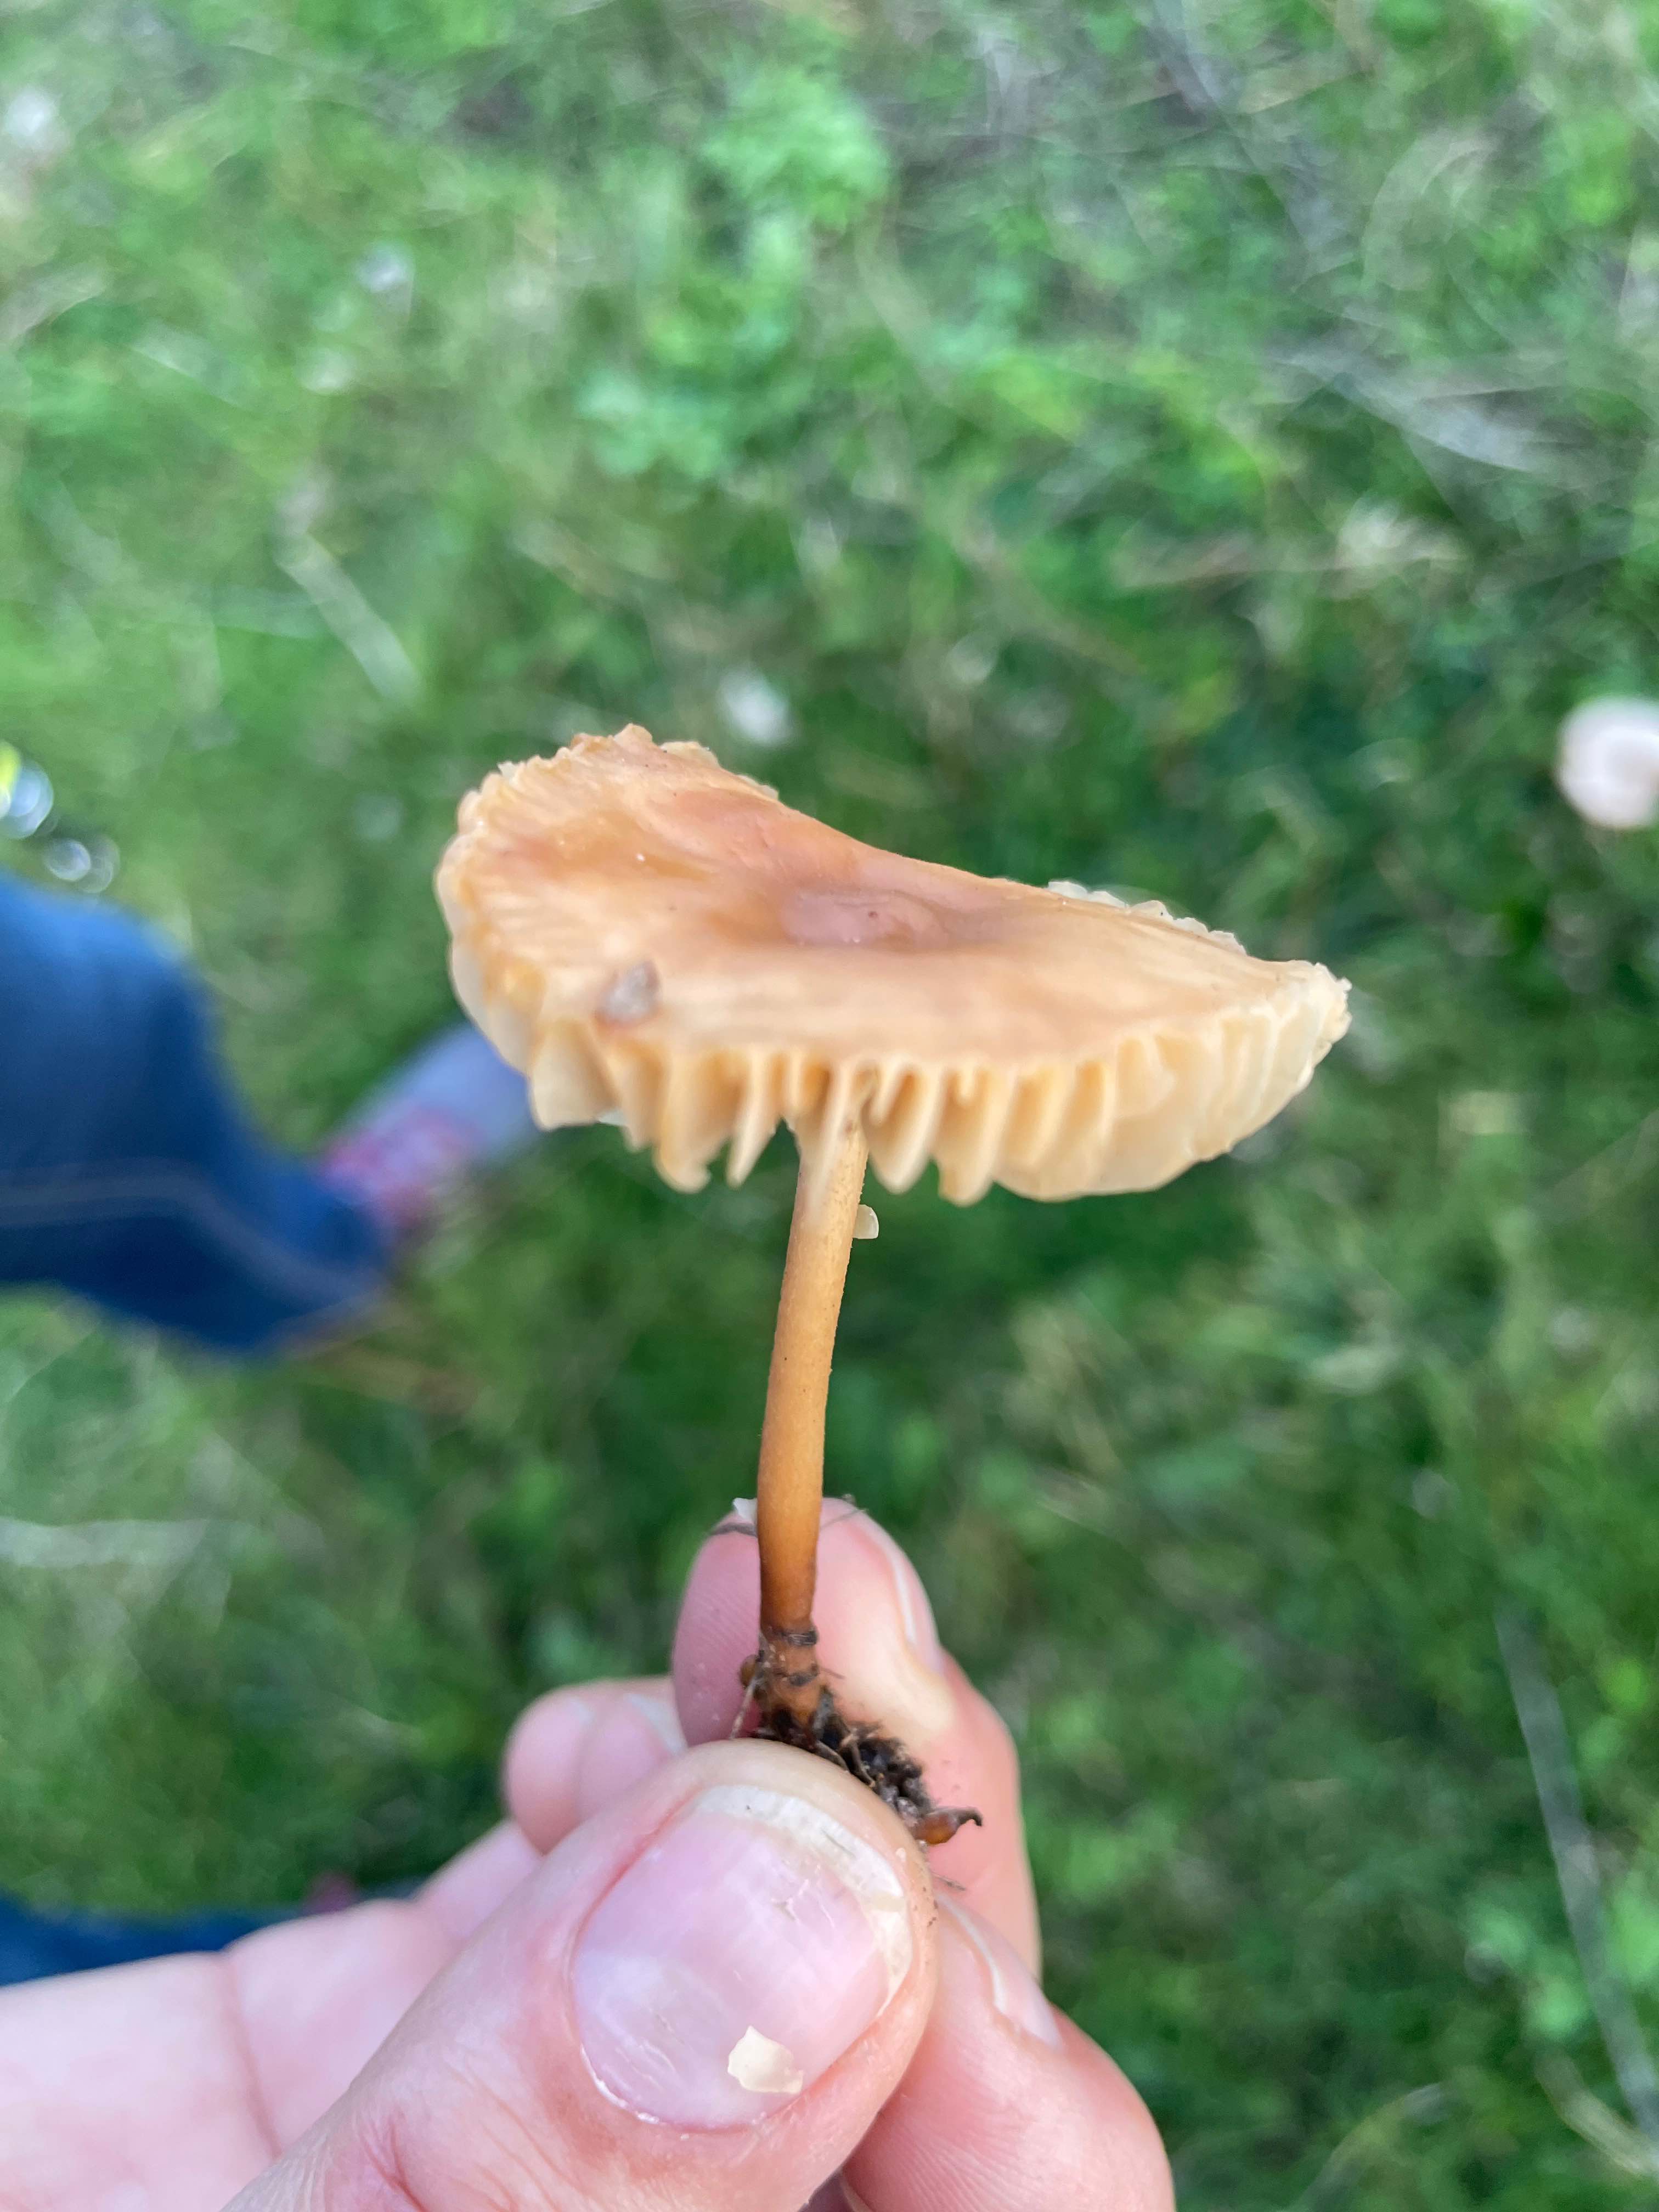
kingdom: Fungi
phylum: Basidiomycota
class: Agaricomycetes
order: Agaricales
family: Marasmiaceae
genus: Marasmius
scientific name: Marasmius oreades
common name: elledans-bruskhat
